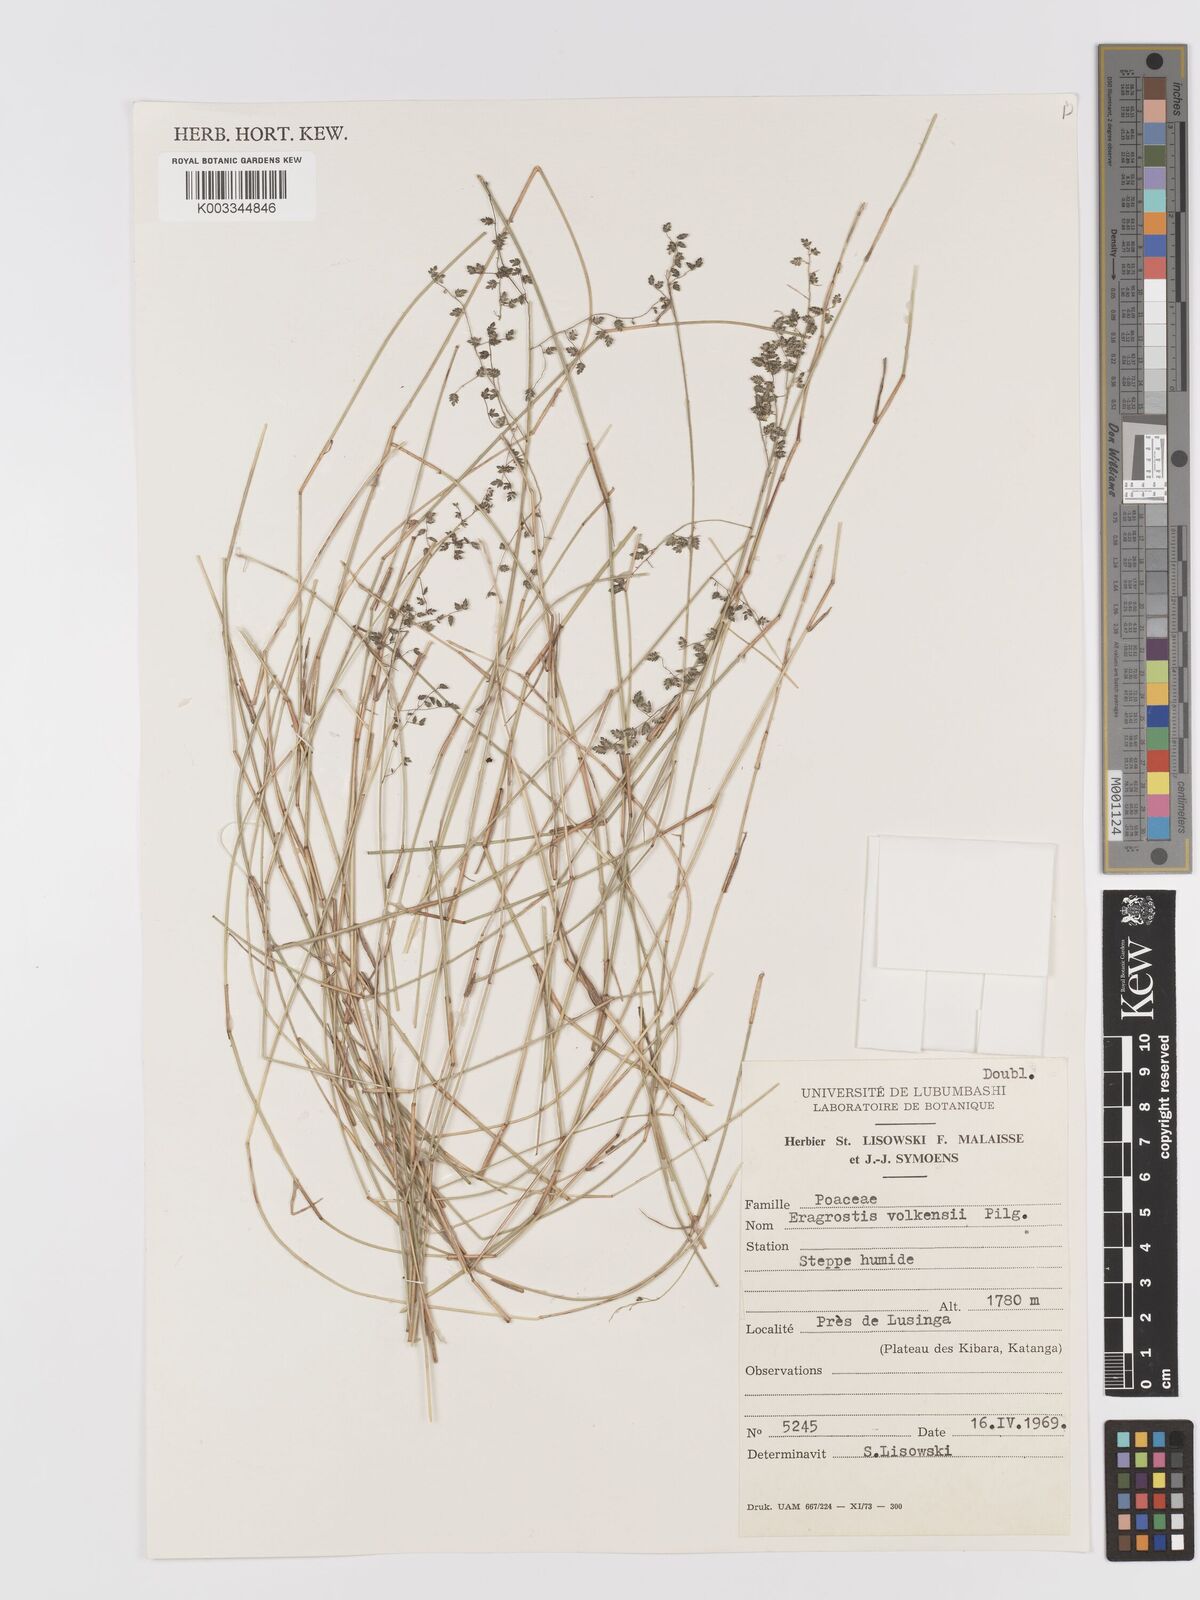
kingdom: Plantae
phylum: Tracheophyta
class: Liliopsida
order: Poales
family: Poaceae
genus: Eragrostis
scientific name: Eragrostis volkensii
